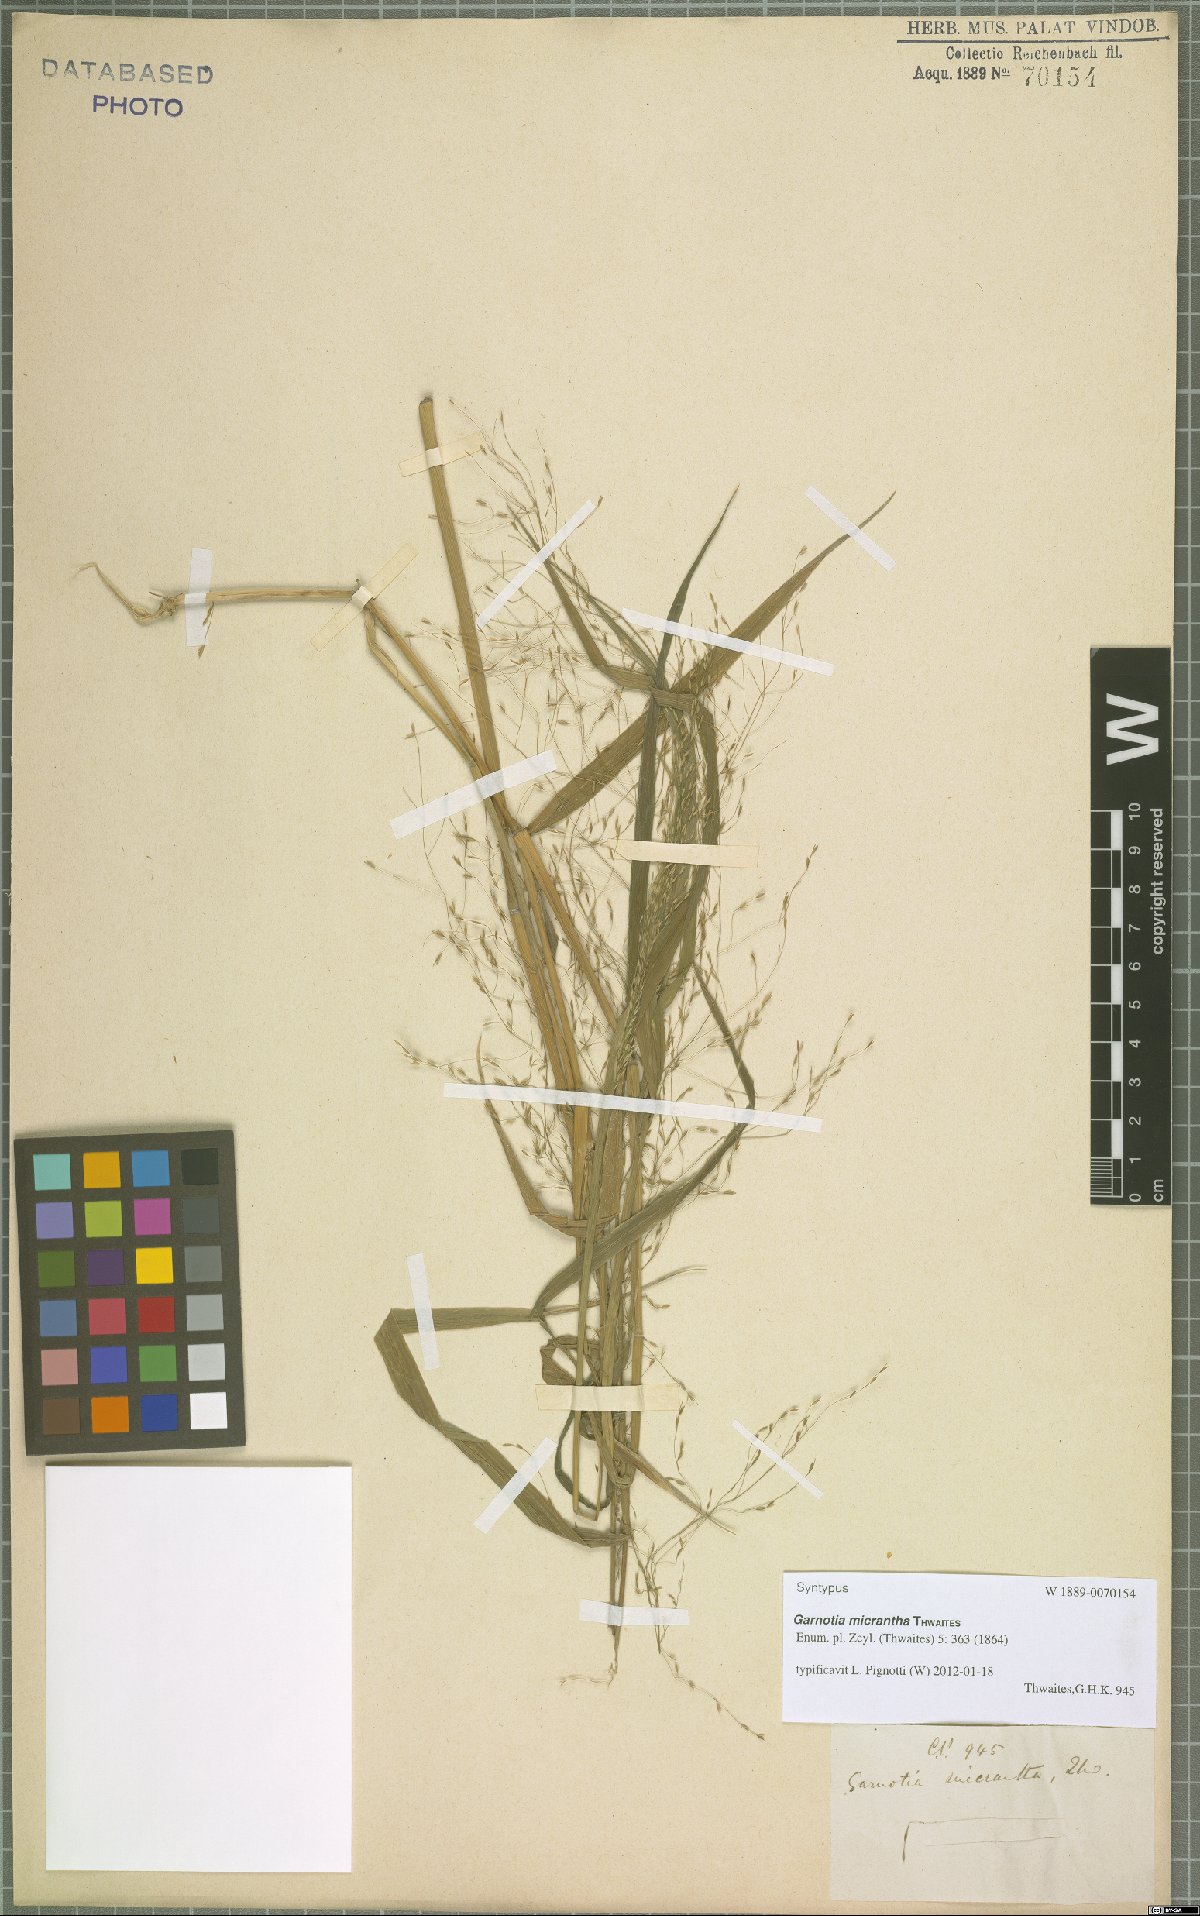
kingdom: Plantae
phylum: Tracheophyta
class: Liliopsida
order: Poales
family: Poaceae
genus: Garnotia
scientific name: Garnotia micrantha
